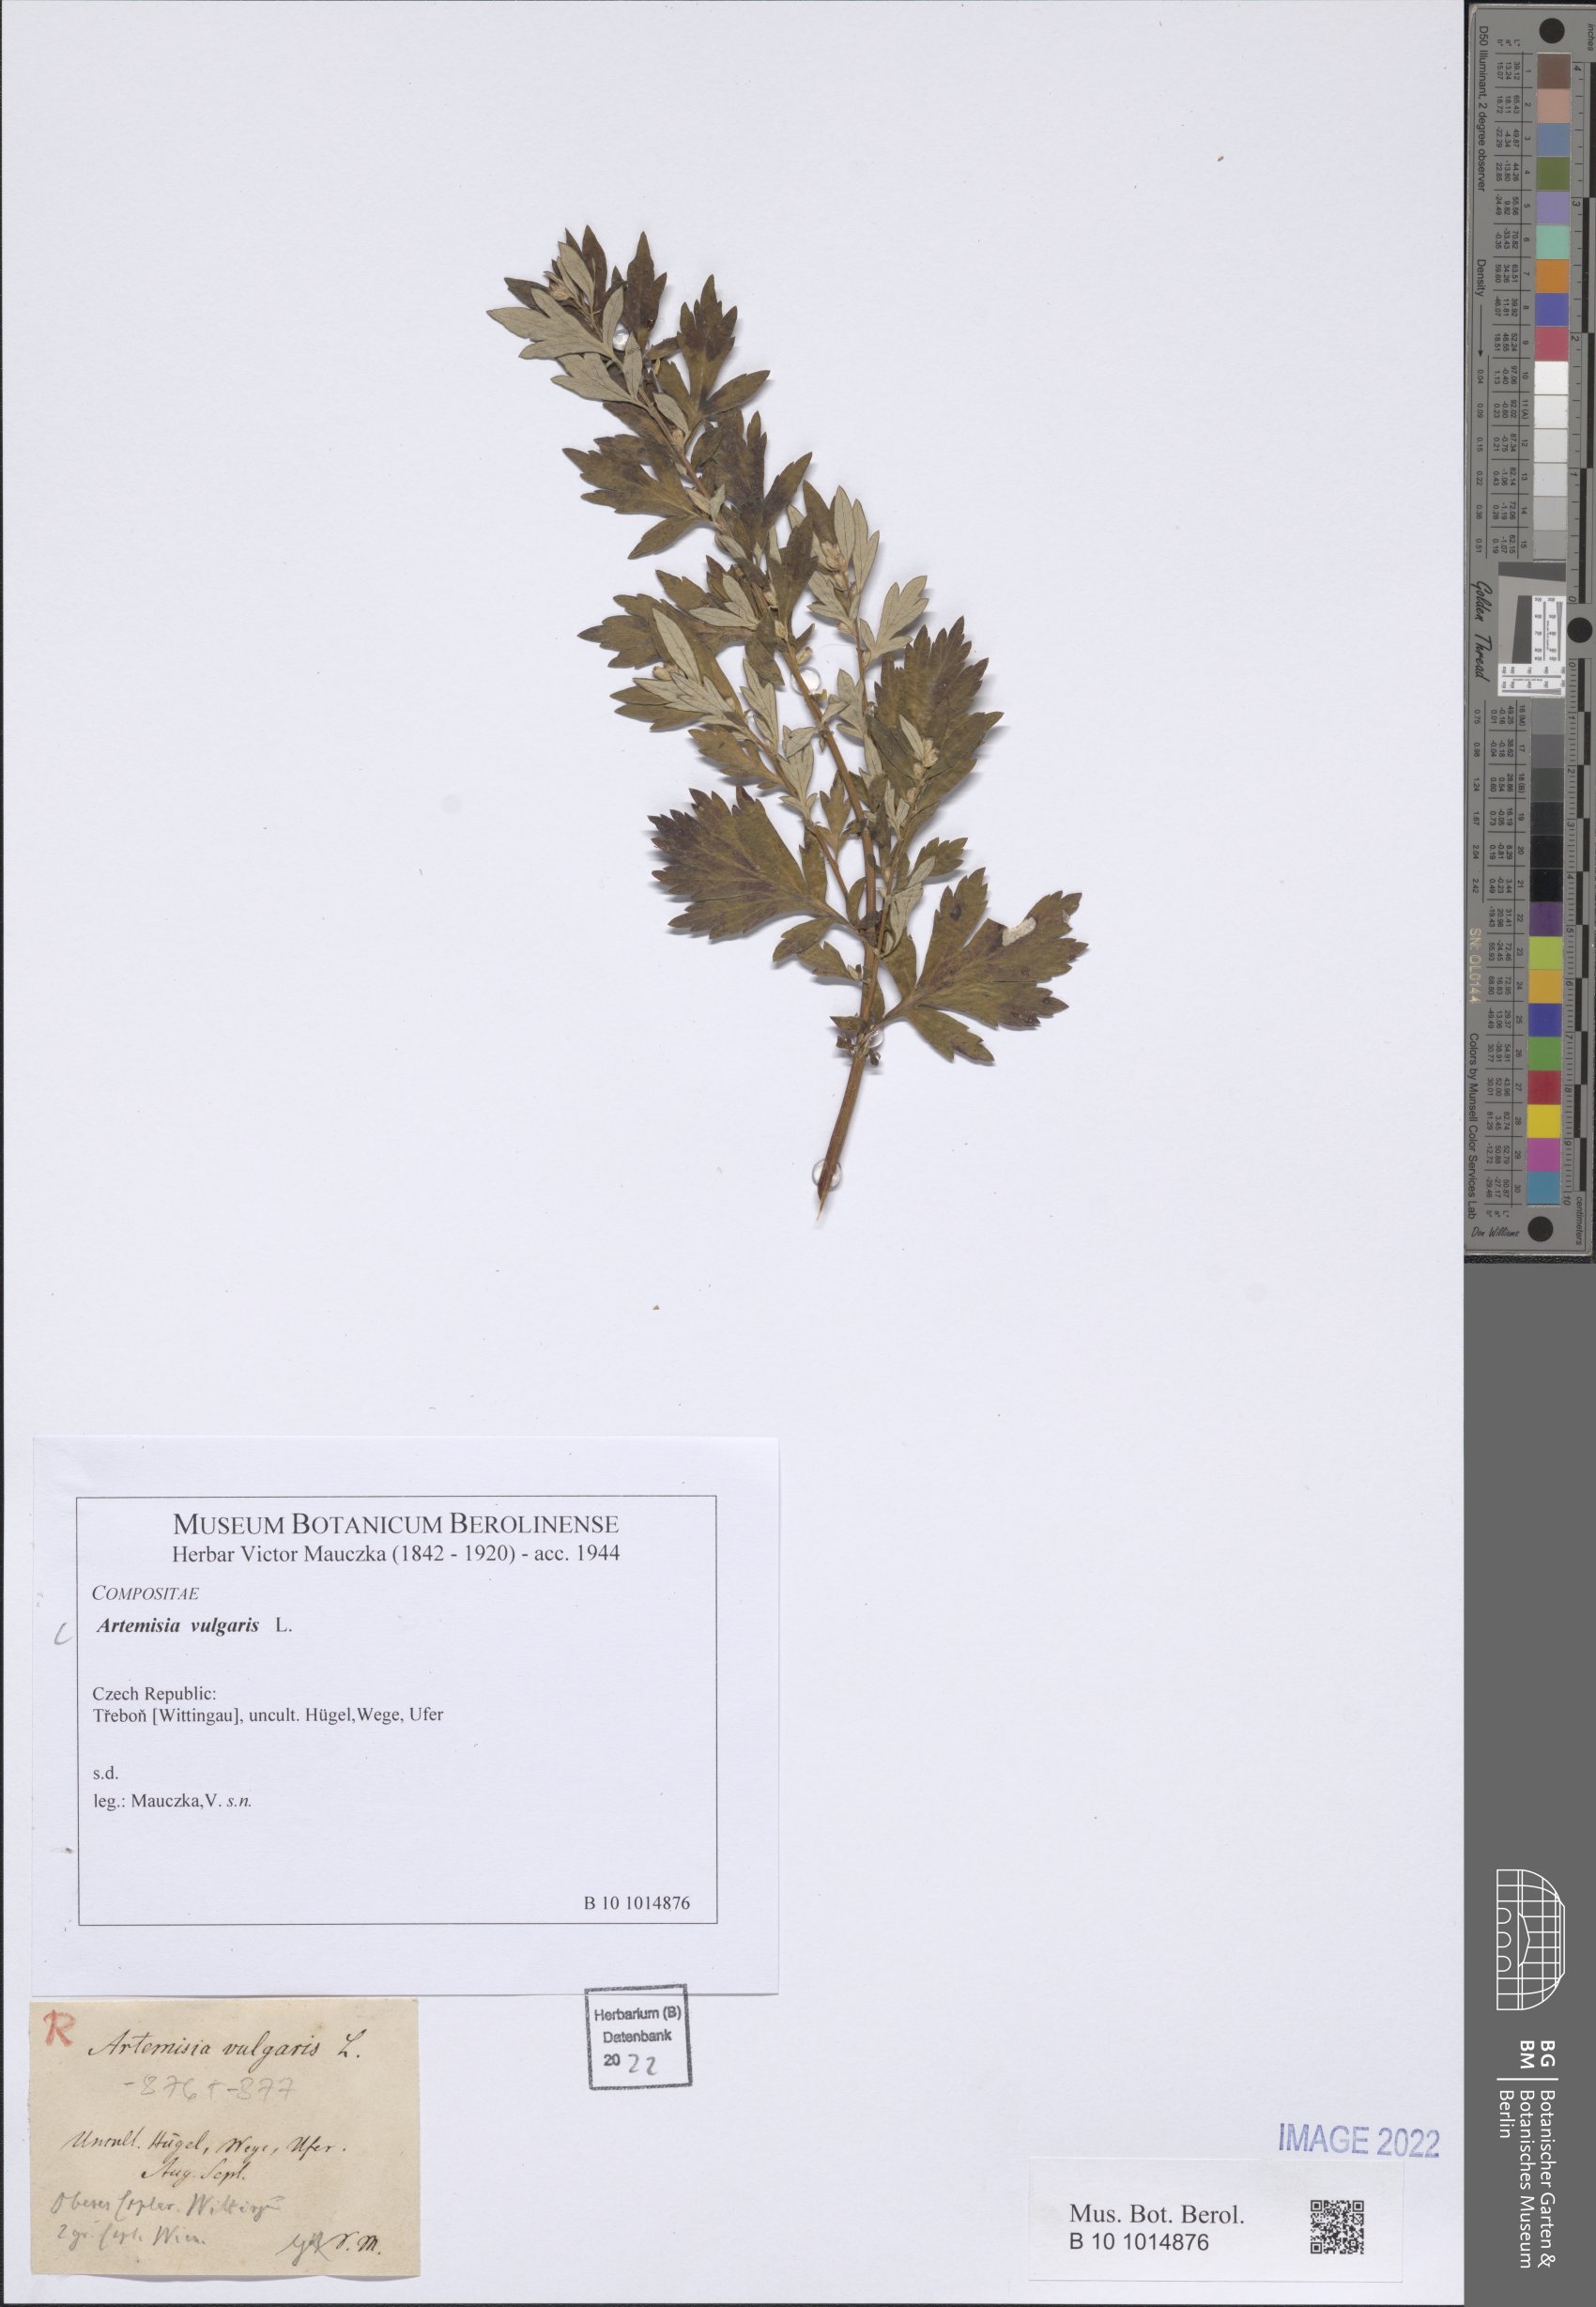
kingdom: Plantae
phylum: Tracheophyta
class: Magnoliopsida
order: Asterales
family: Asteraceae
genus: Artemisia
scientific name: Artemisia vulgaris
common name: Mugwort
